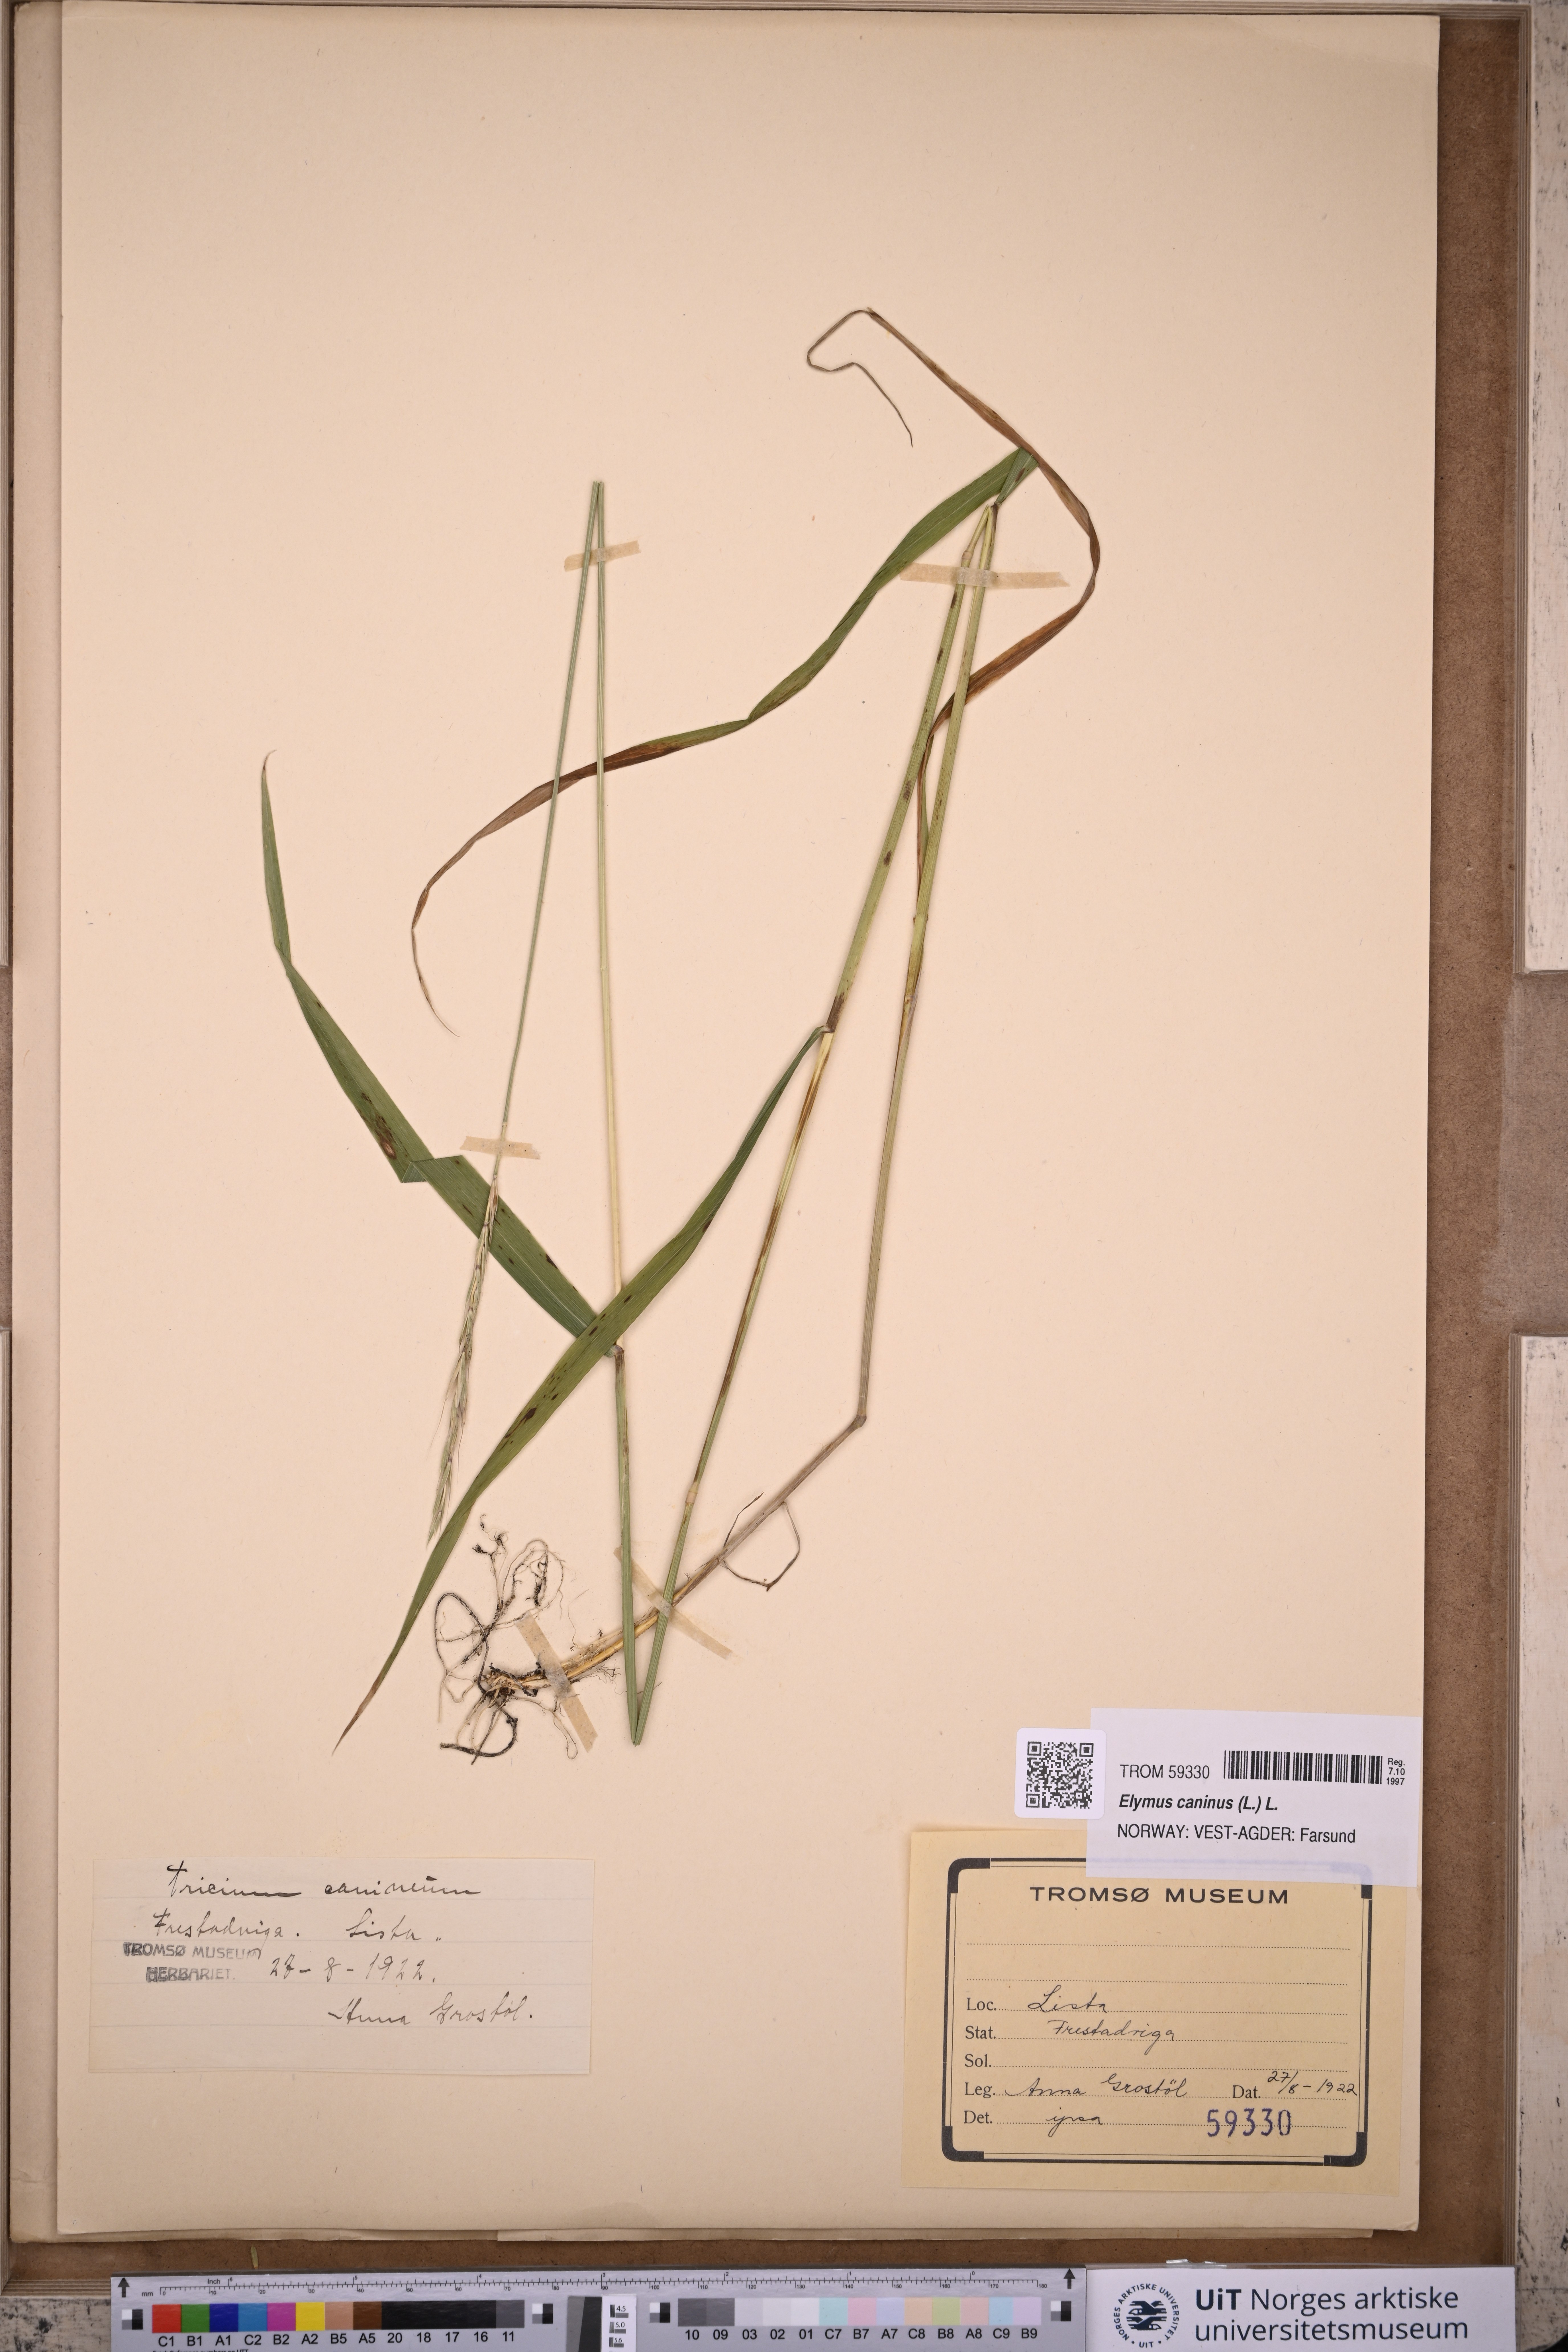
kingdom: Plantae
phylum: Tracheophyta
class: Liliopsida
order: Poales
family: Poaceae
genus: Elymus
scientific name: Elymus caninus
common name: Bearded couch
